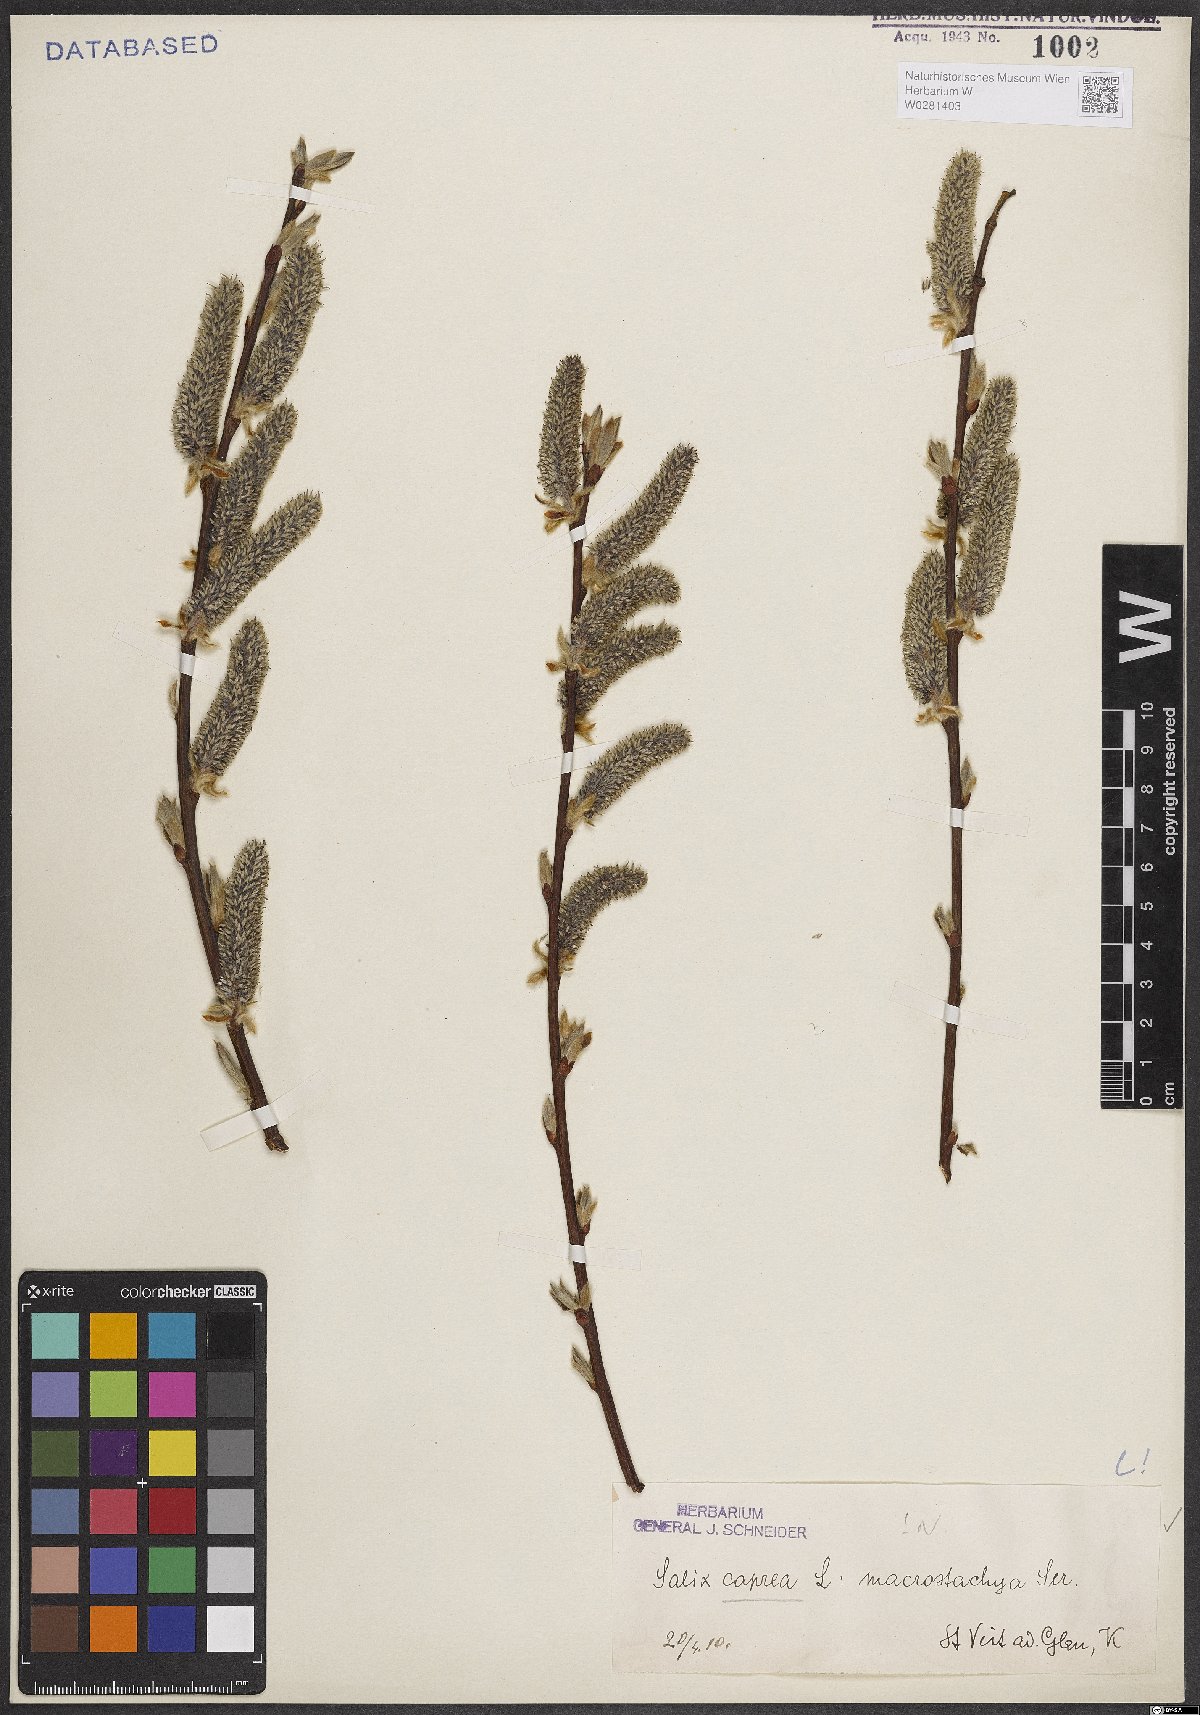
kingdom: Plantae
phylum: Tracheophyta
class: Magnoliopsida
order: Malpighiales
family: Salicaceae
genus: Salix
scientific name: Salix caprea
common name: Goat willow
